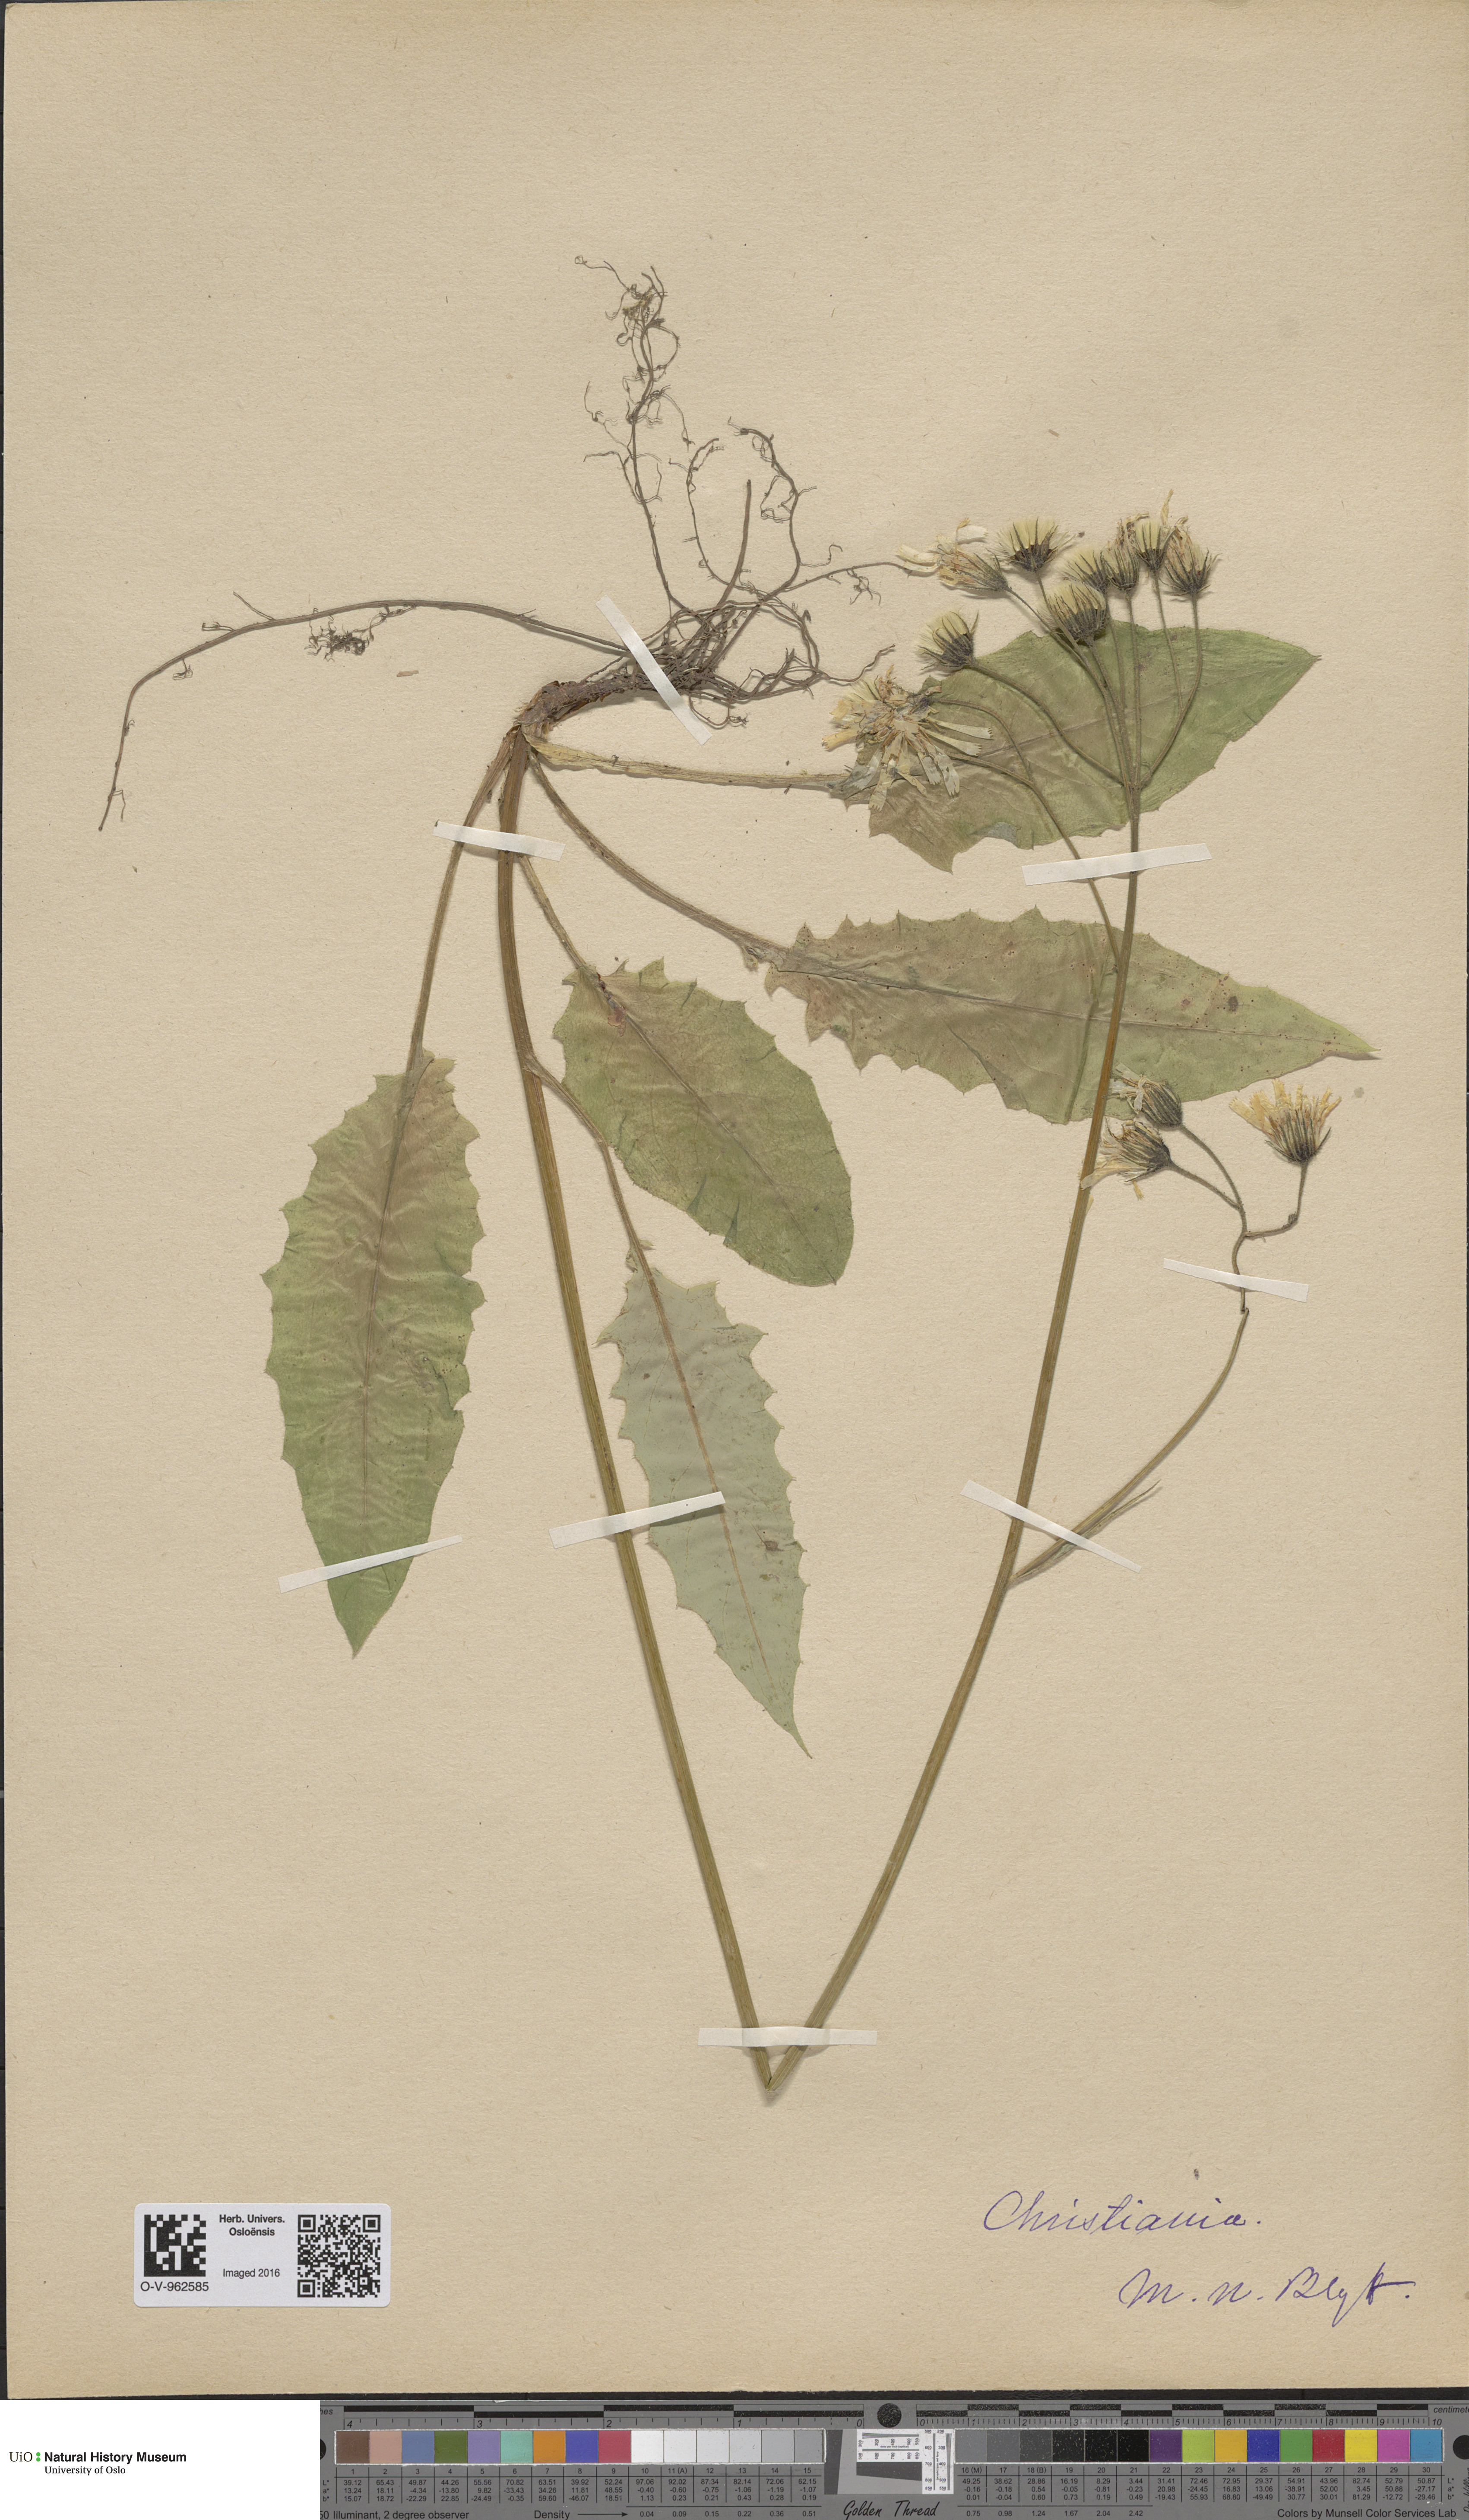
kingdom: Plantae
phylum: Tracheophyta
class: Magnoliopsida
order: Asterales
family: Asteraceae
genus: Hieracium
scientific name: Hieracium
